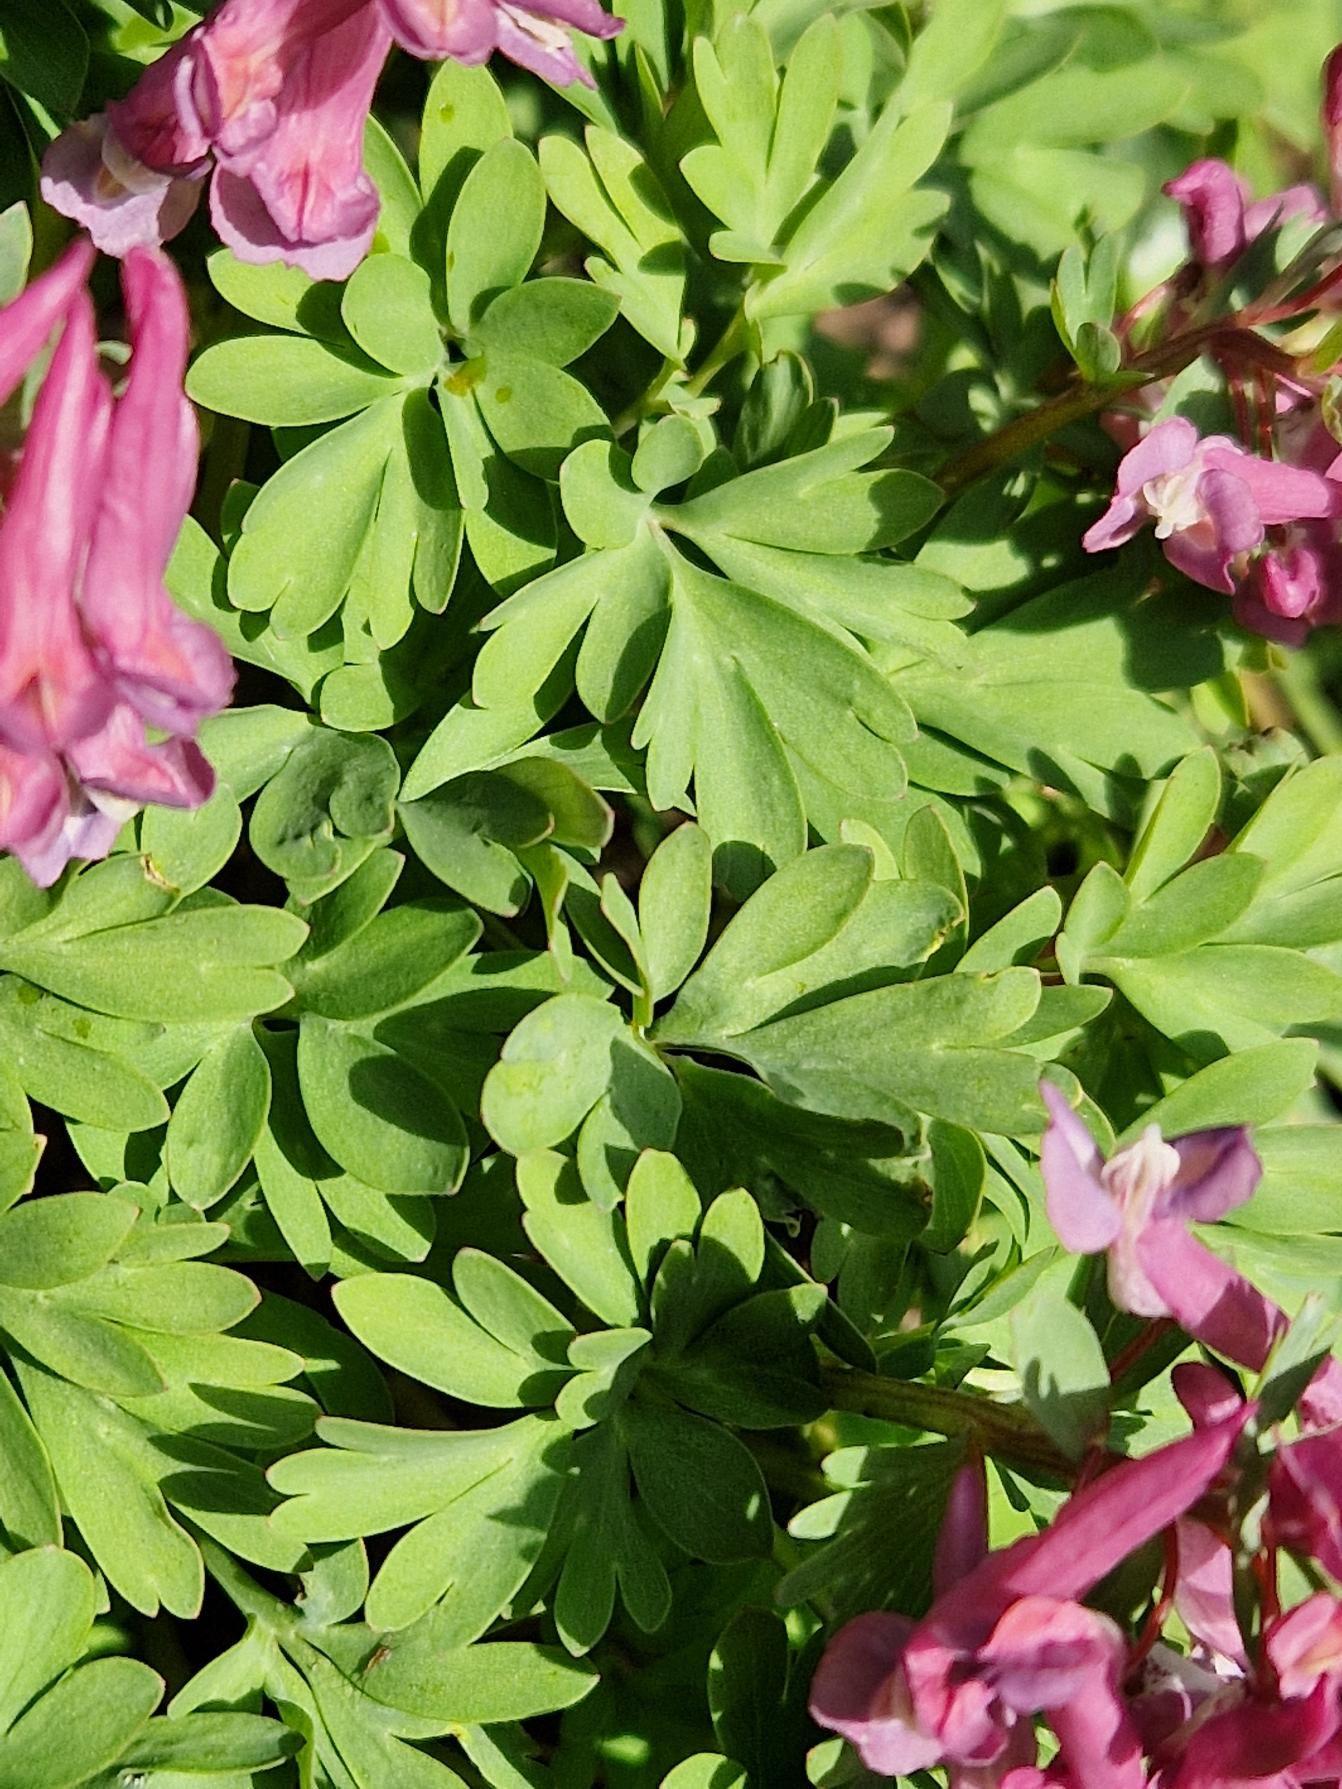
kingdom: Plantae
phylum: Tracheophyta
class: Magnoliopsida
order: Ranunculales
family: Papaveraceae
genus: Corydalis
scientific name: Corydalis solida
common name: Langstilket lærkespore
